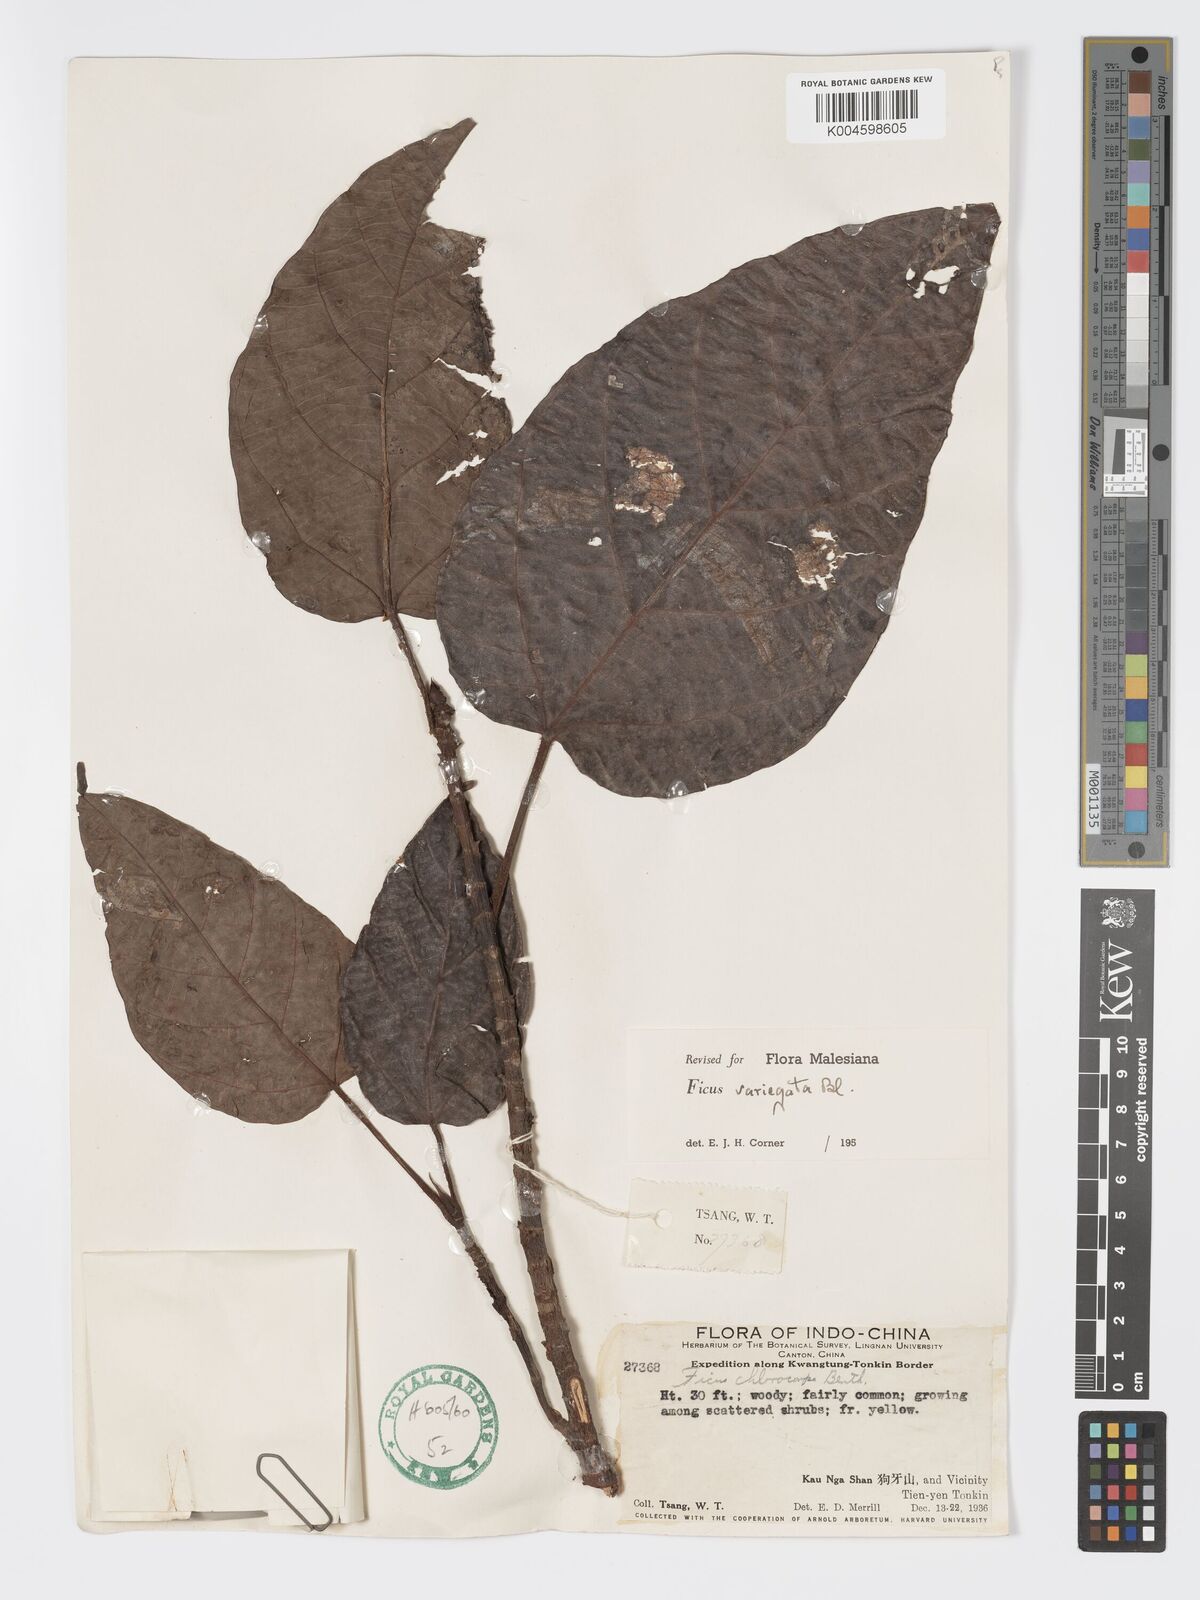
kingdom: Plantae
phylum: Tracheophyta
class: Magnoliopsida
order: Rosales
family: Moraceae
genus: Ficus
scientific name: Ficus variegata
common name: Variegated fig
